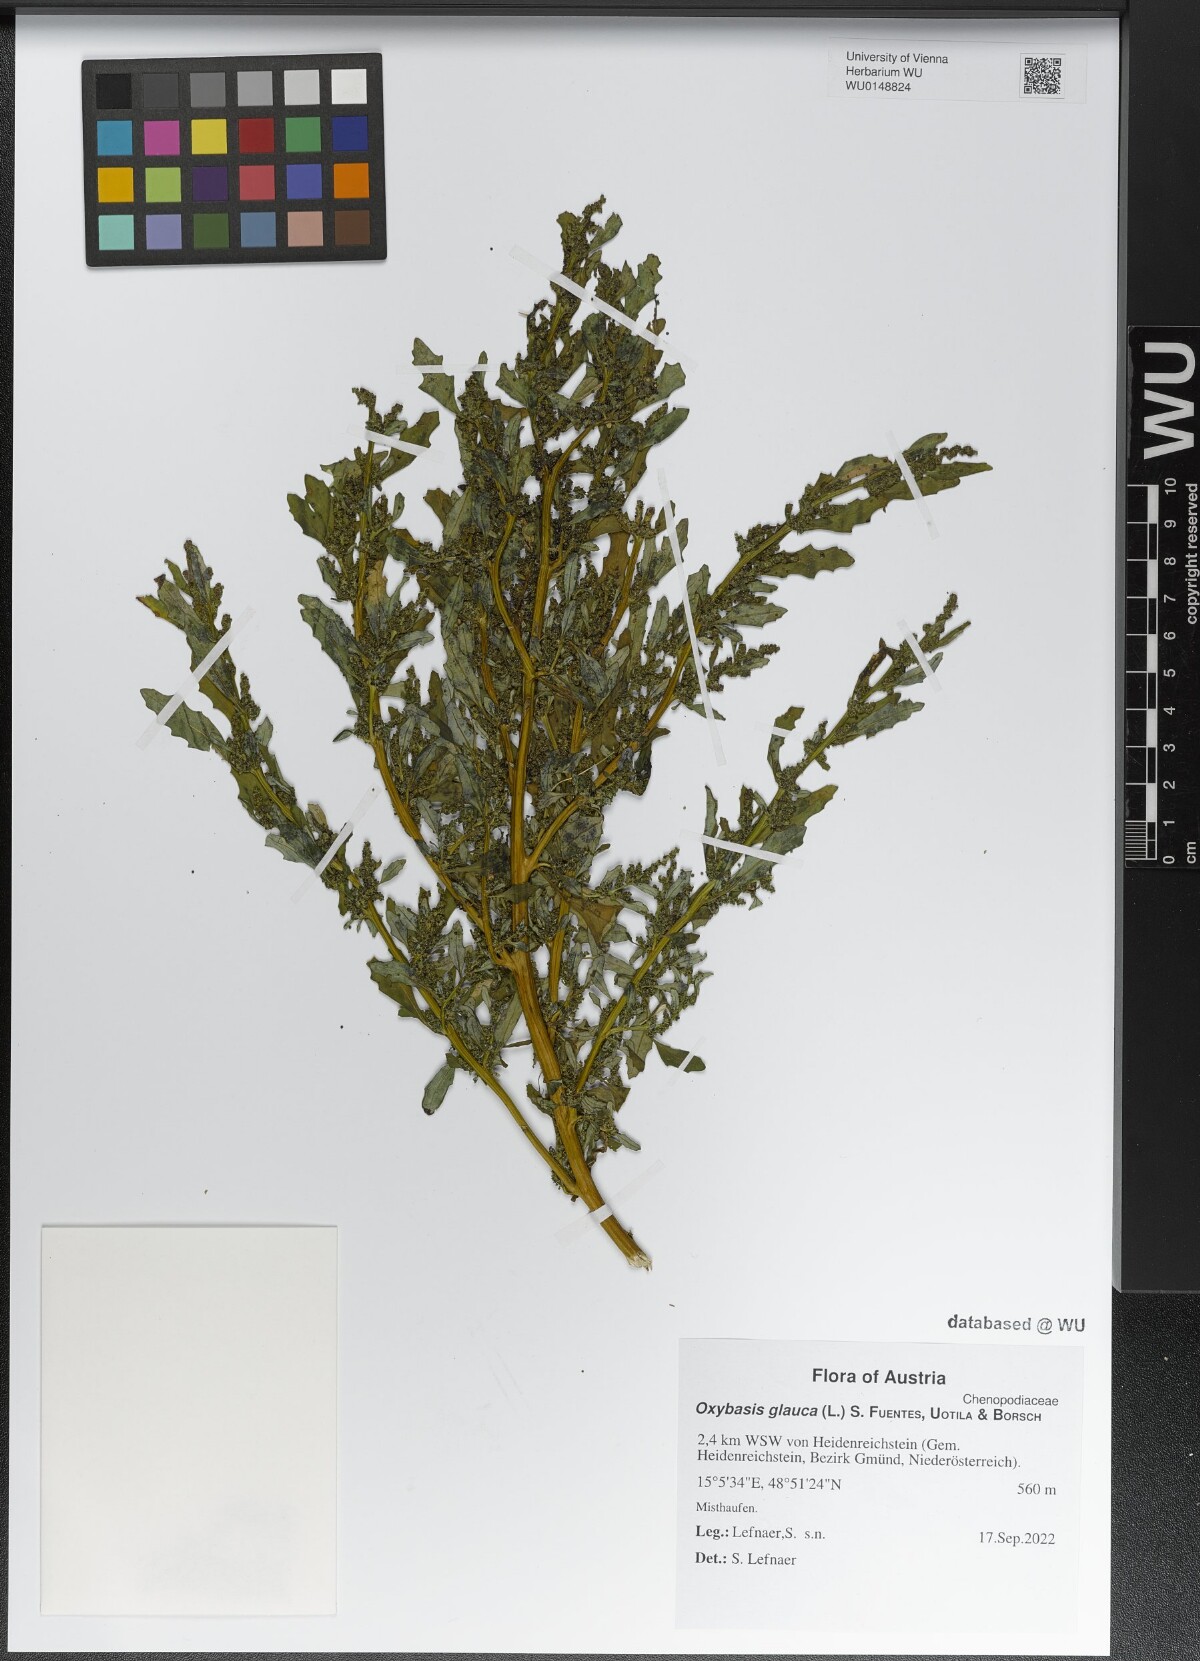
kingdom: Plantae
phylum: Tracheophyta
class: Magnoliopsida
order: Caryophyllales
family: Amaranthaceae
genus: Oxybasis
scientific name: Oxybasis glauca
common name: Glaucous goosefoot
